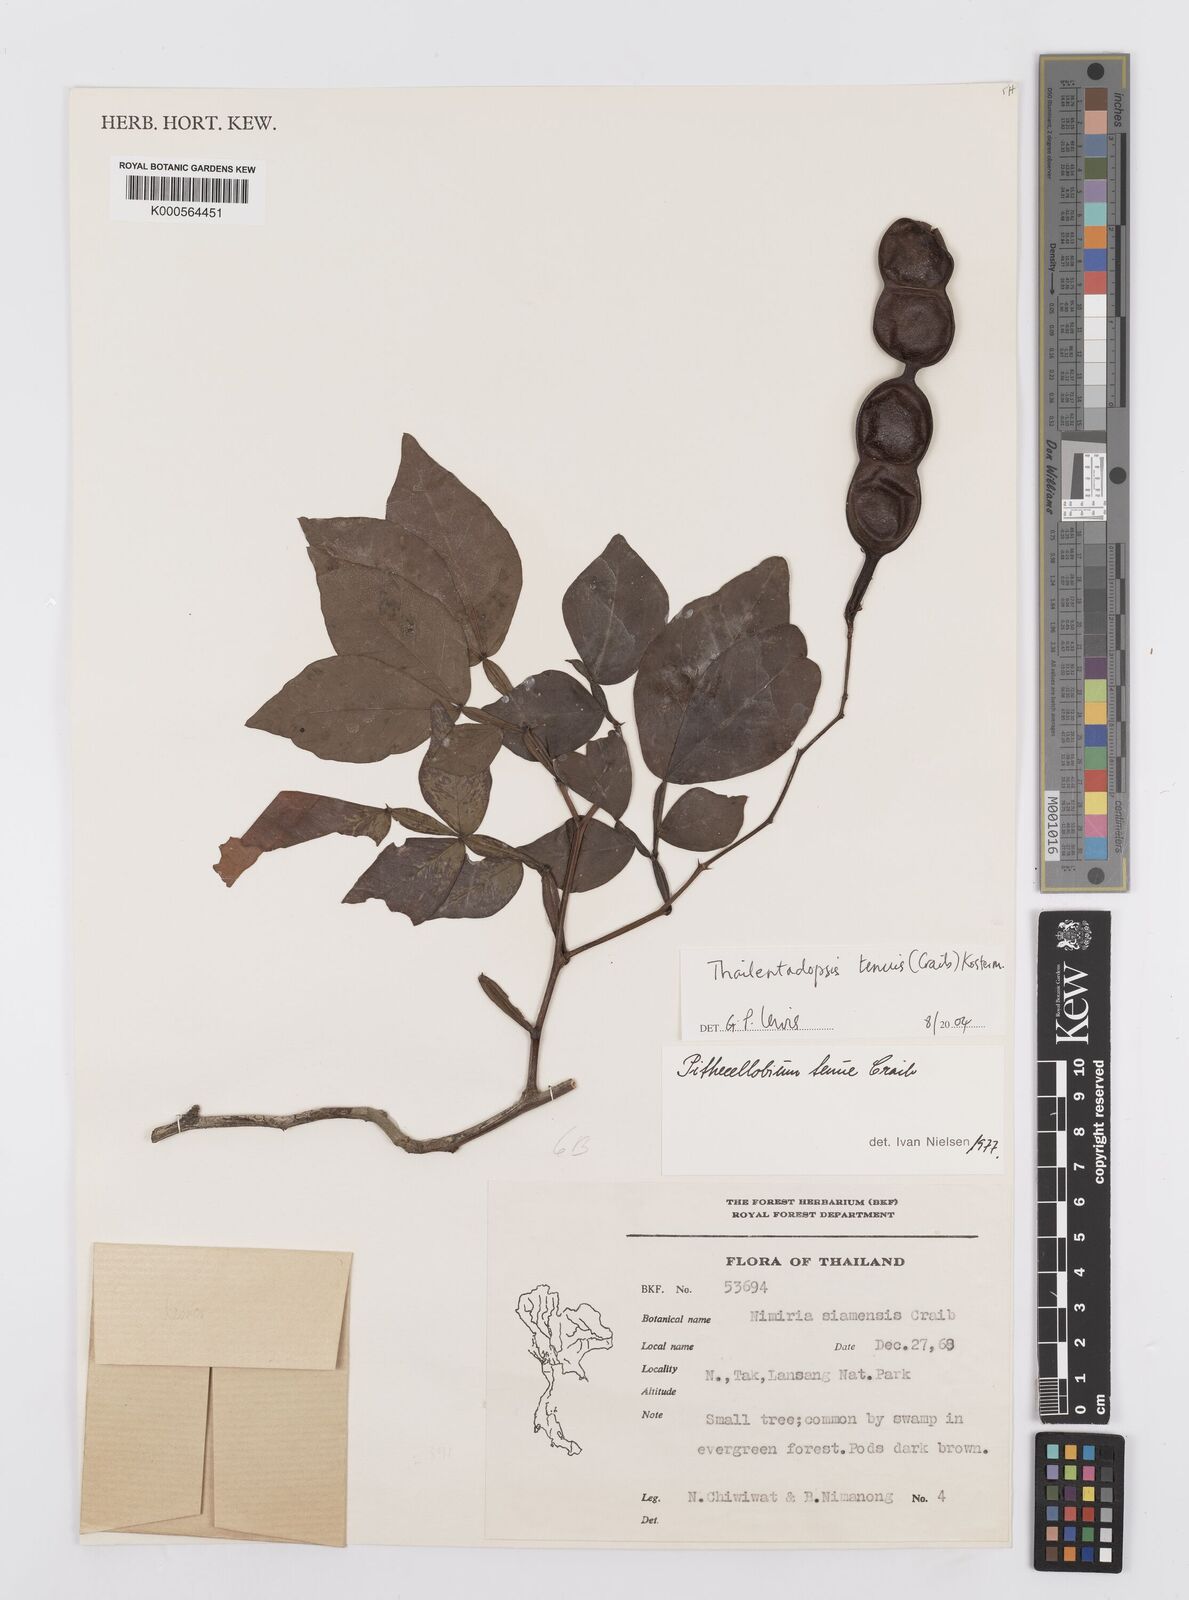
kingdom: Plantae
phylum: Tracheophyta
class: Magnoliopsida
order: Fabales
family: Fabaceae
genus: Thailentadopsis
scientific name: Thailentadopsis tenuis
